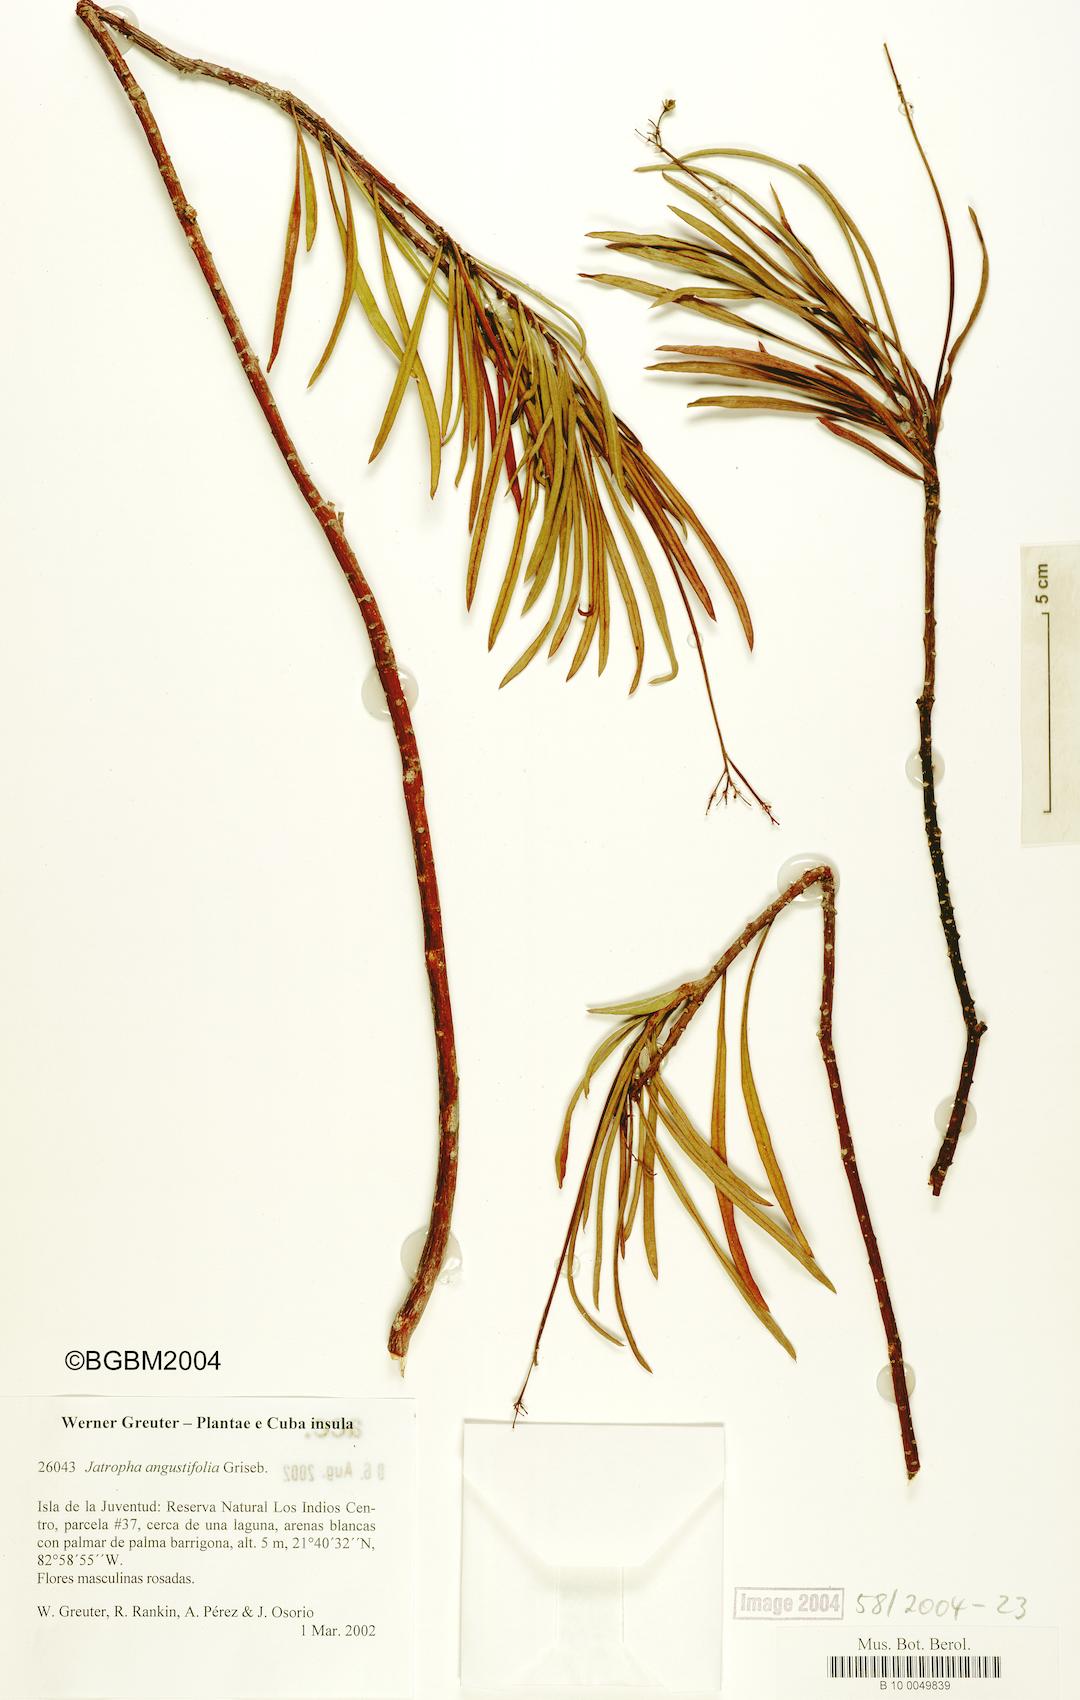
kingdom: Plantae
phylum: Tracheophyta
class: Magnoliopsida
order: Malpighiales
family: Euphorbiaceae
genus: Jatropha
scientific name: Jatropha angustifolia
